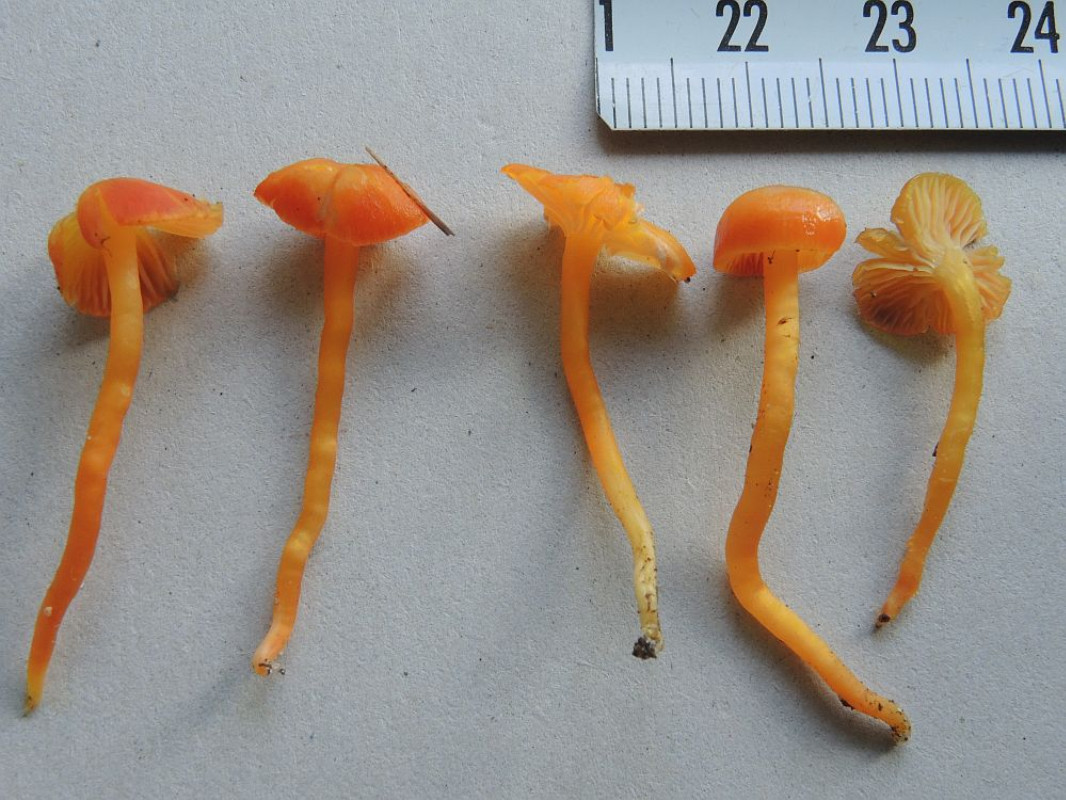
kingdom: Fungi
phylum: Basidiomycota
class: Agaricomycetes
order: Agaricales
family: Hygrophoraceae
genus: Hygrocybe
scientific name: Hygrocybe ceracea
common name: voksgul vokshat
